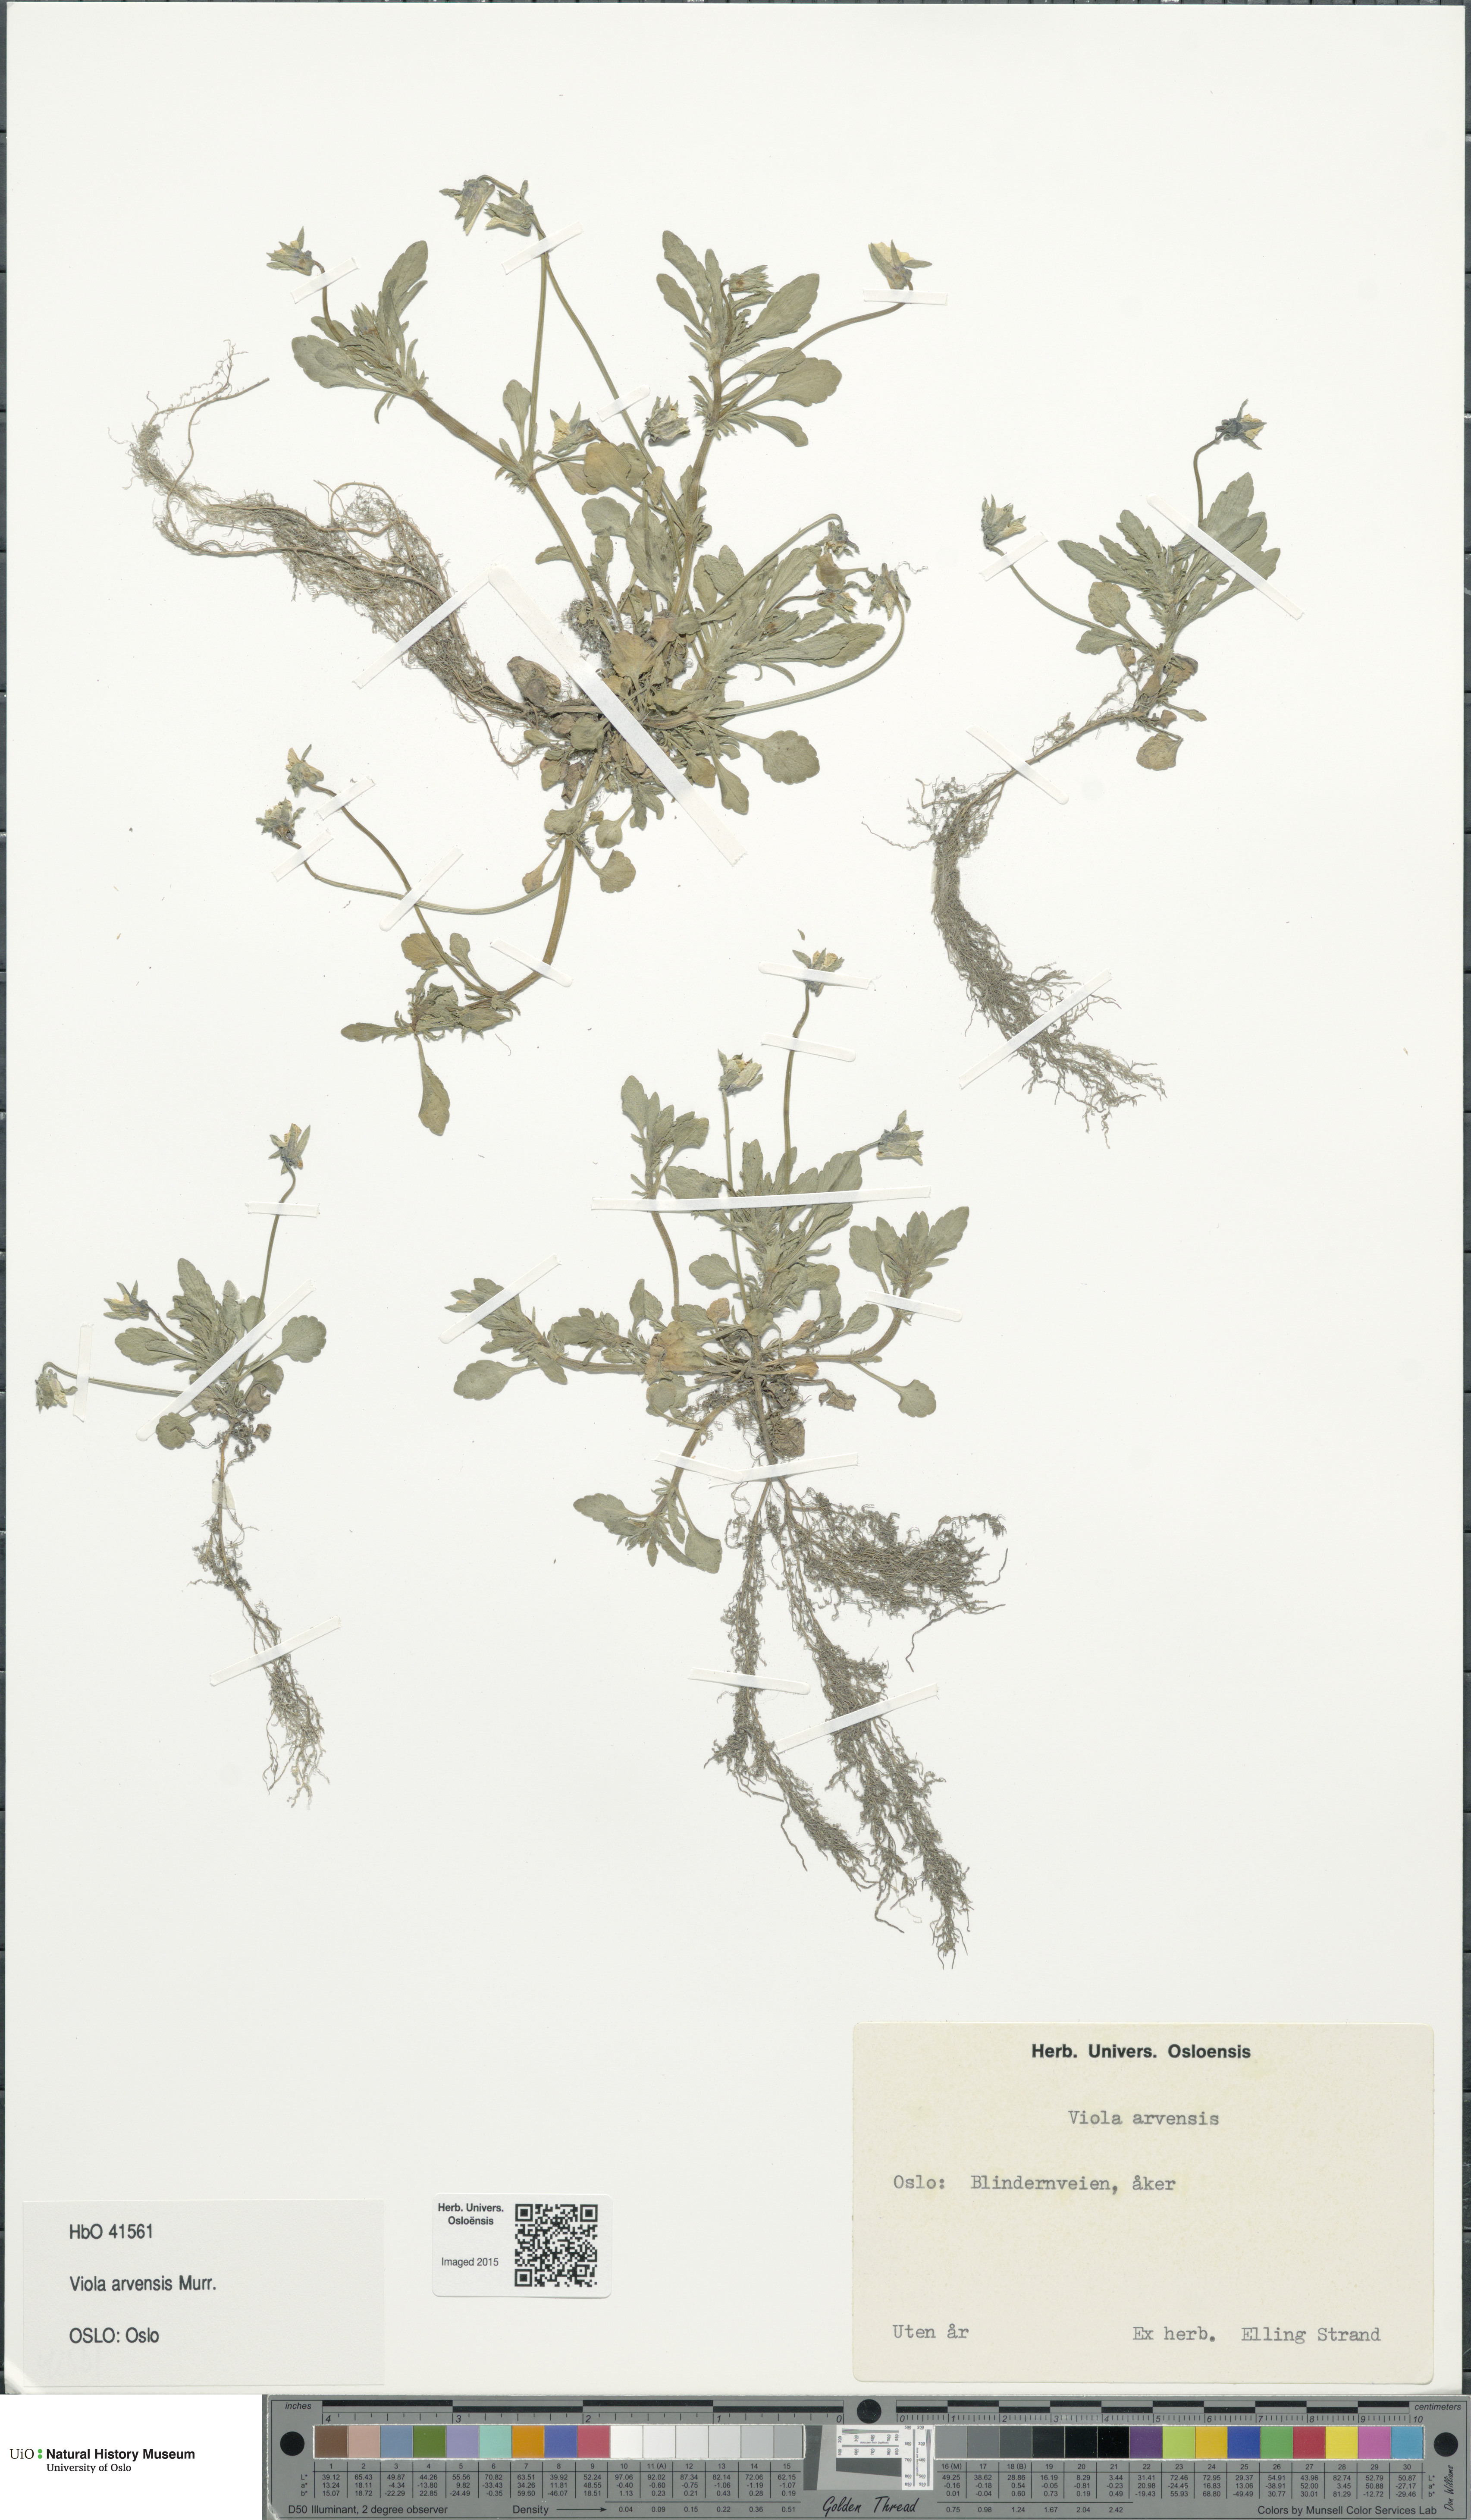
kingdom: Plantae
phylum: Tracheophyta
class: Magnoliopsida
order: Malpighiales
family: Violaceae
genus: Viola
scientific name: Viola arvensis
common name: Field pansy
